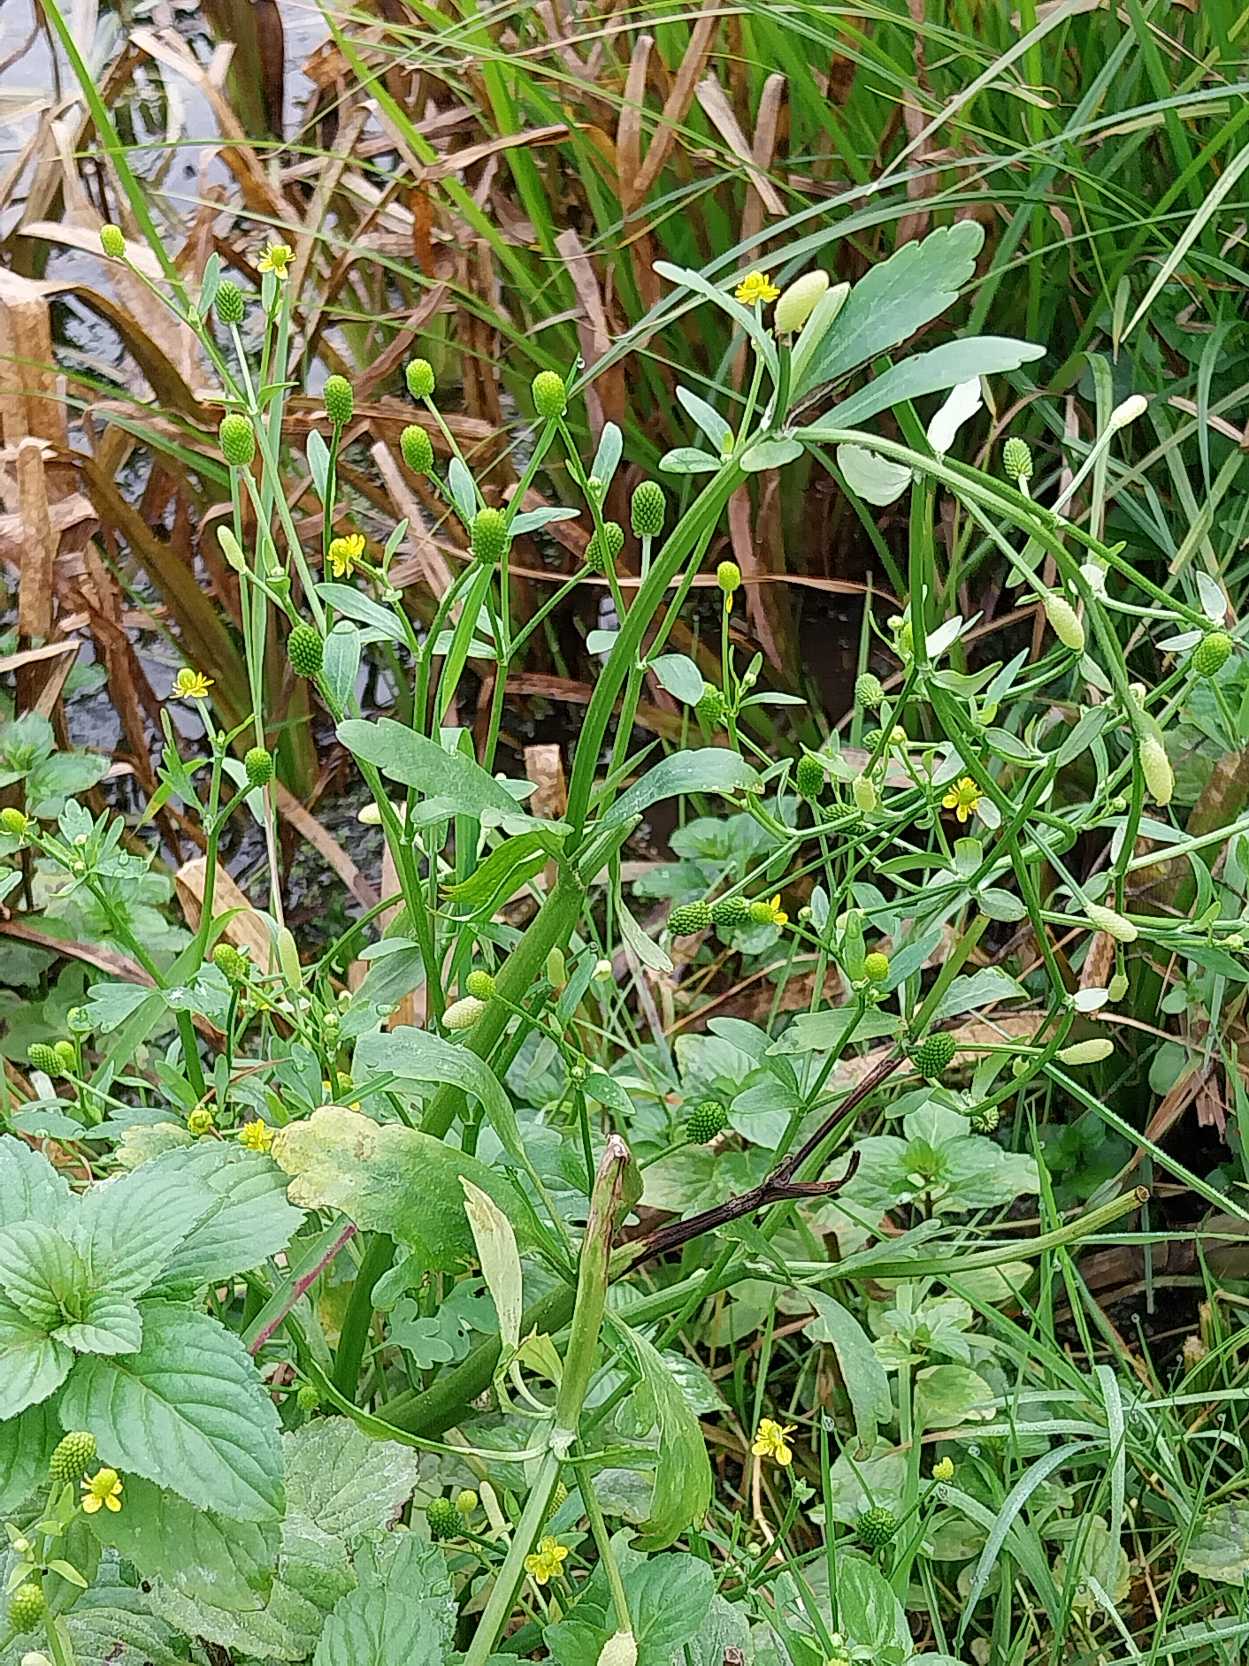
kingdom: Plantae
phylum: Tracheophyta
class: Magnoliopsida
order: Ranunculales
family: Ranunculaceae
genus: Ranunculus
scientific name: Ranunculus sceleratus
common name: Tigger-ranunkel
